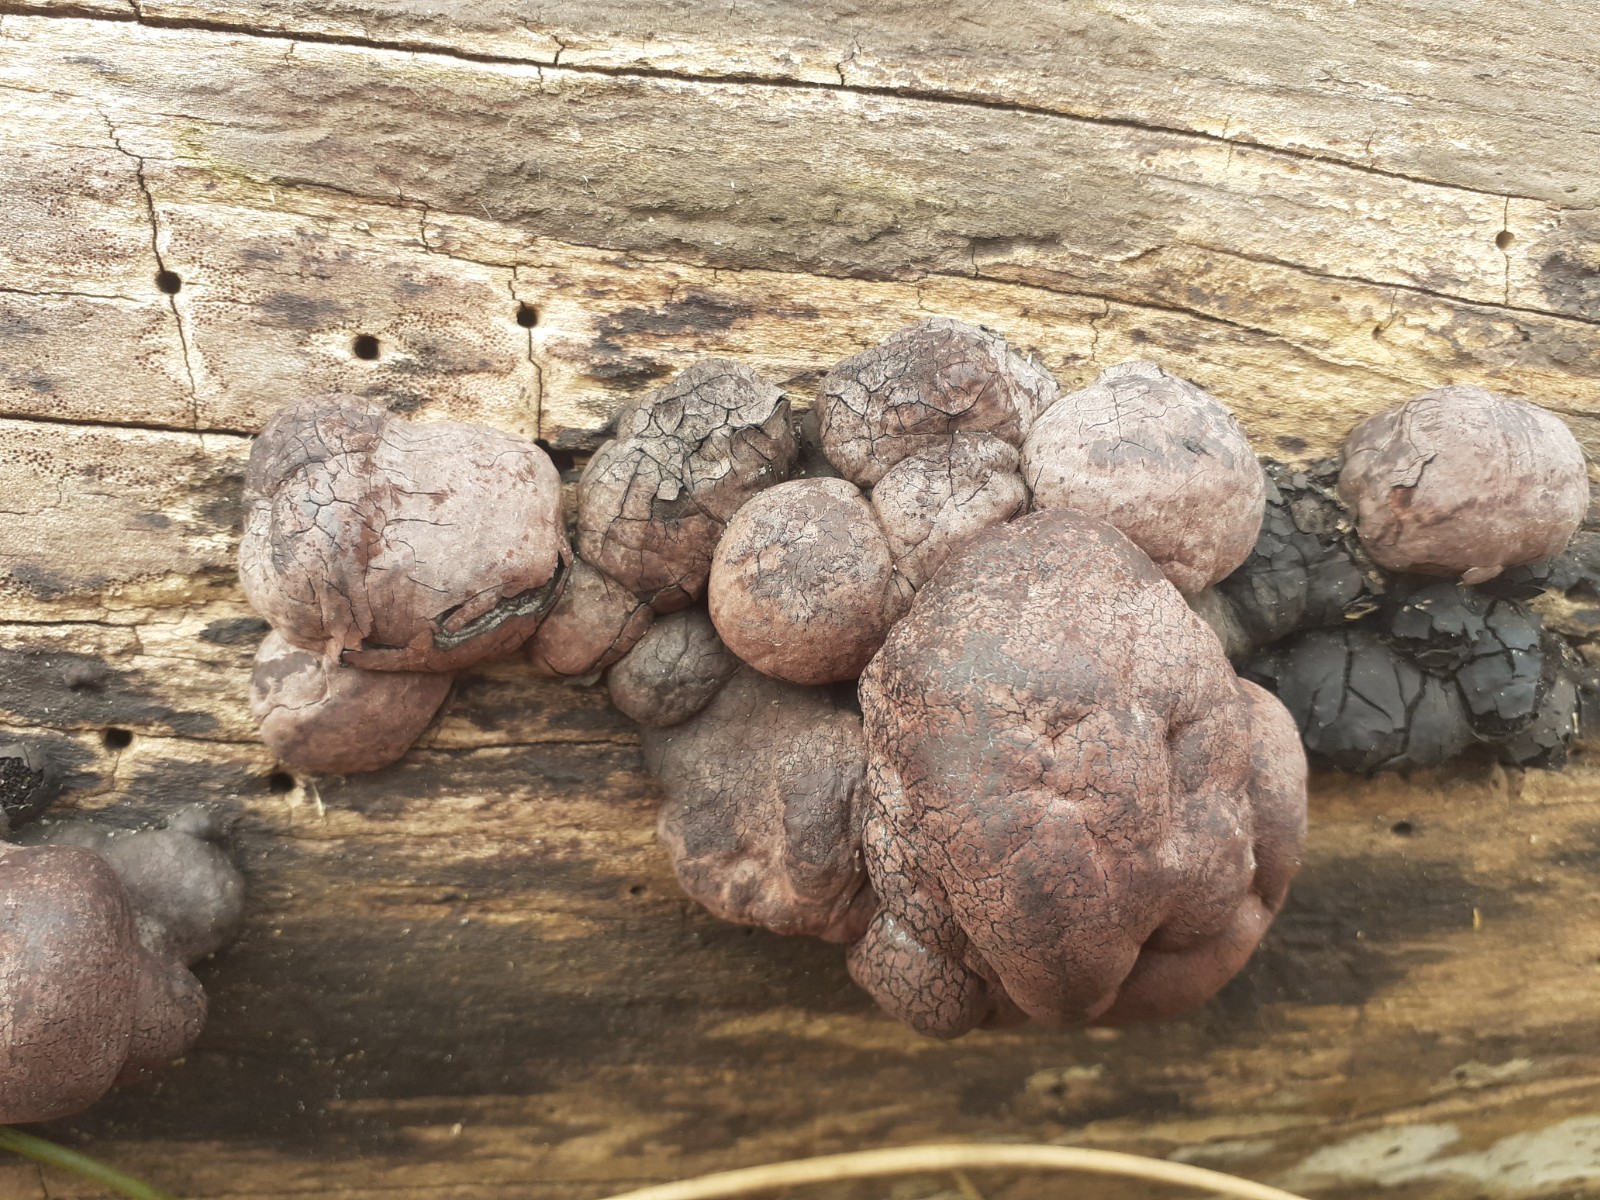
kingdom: Fungi
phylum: Ascomycota
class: Sordariomycetes
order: Xylariales
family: Hypoxylaceae
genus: Daldinia
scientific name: Daldinia concentrica
